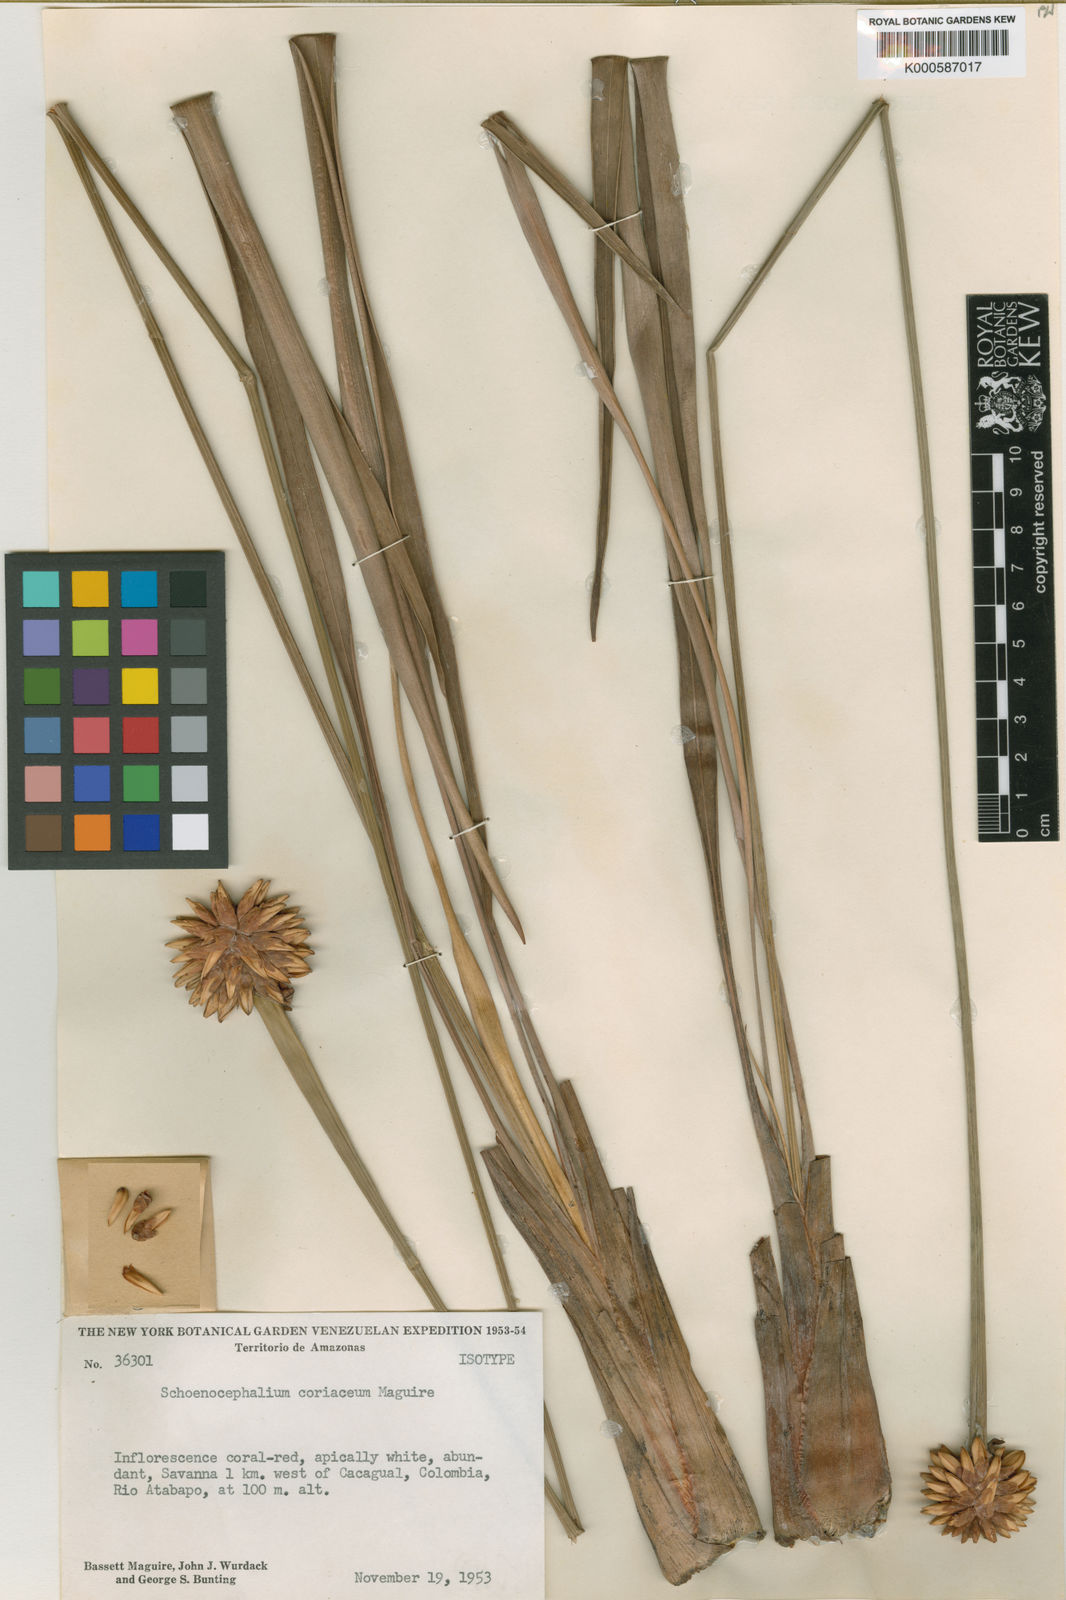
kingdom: Plantae
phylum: Tracheophyta
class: Liliopsida
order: Poales
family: Rapateaceae
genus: Schoenocephalium
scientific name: Schoenocephalium cucullatum
